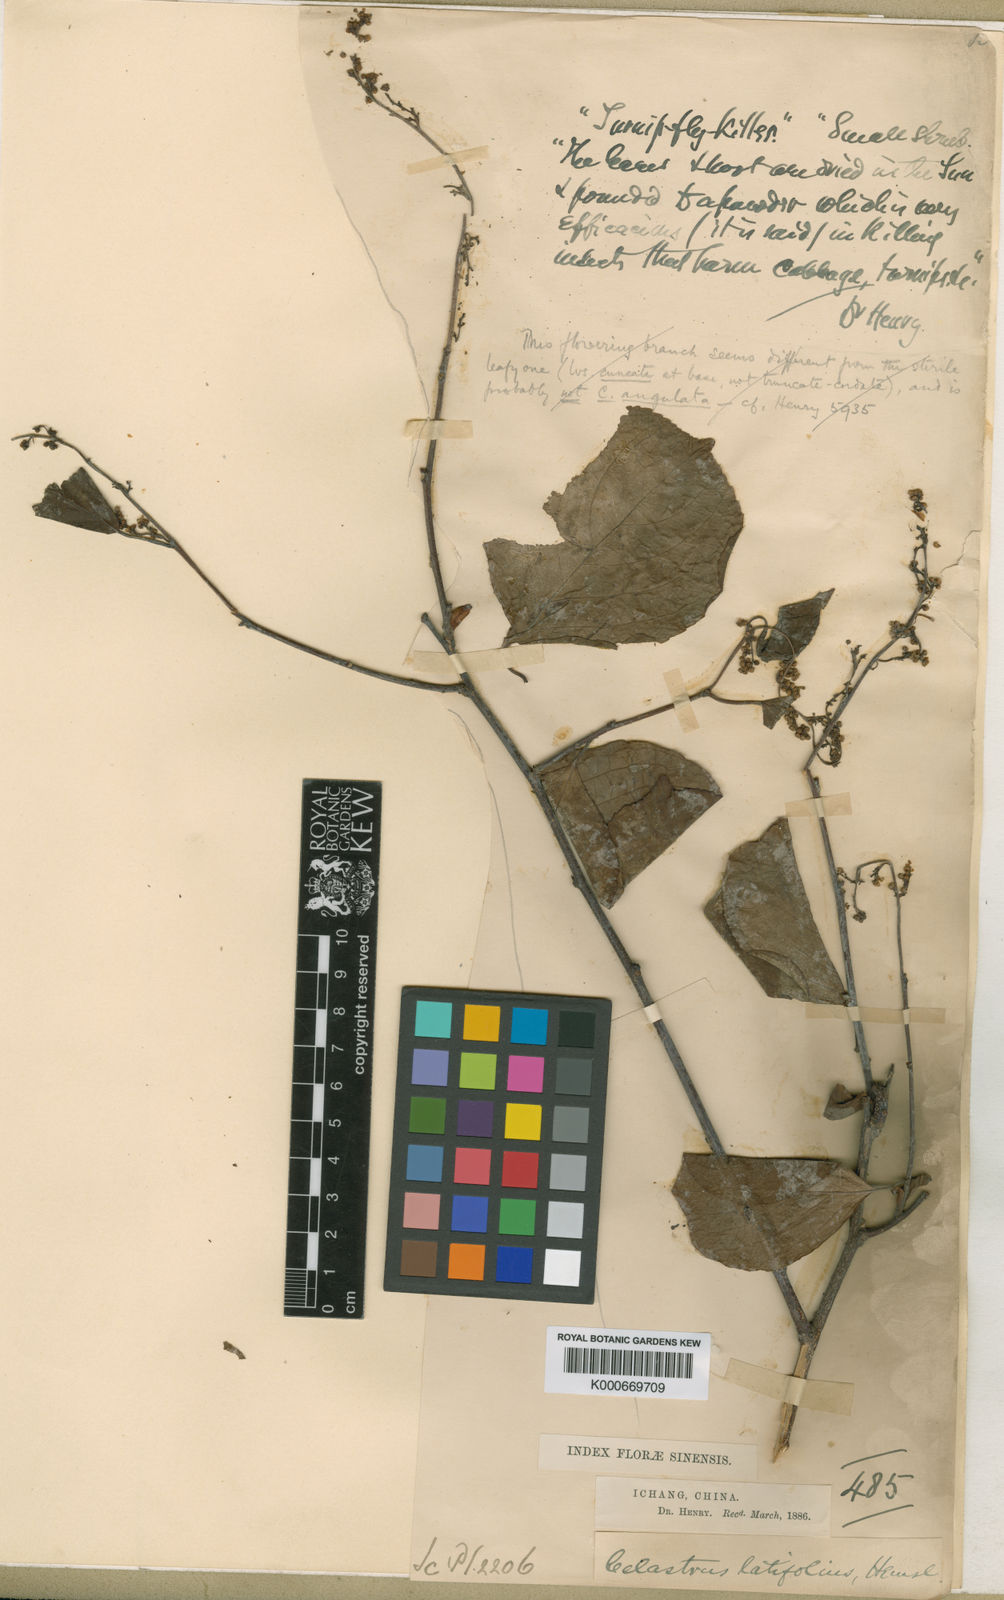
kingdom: Plantae
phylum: Tracheophyta
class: Magnoliopsida
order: Celastrales
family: Celastraceae
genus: Celastrus
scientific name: Celastrus angulatus
